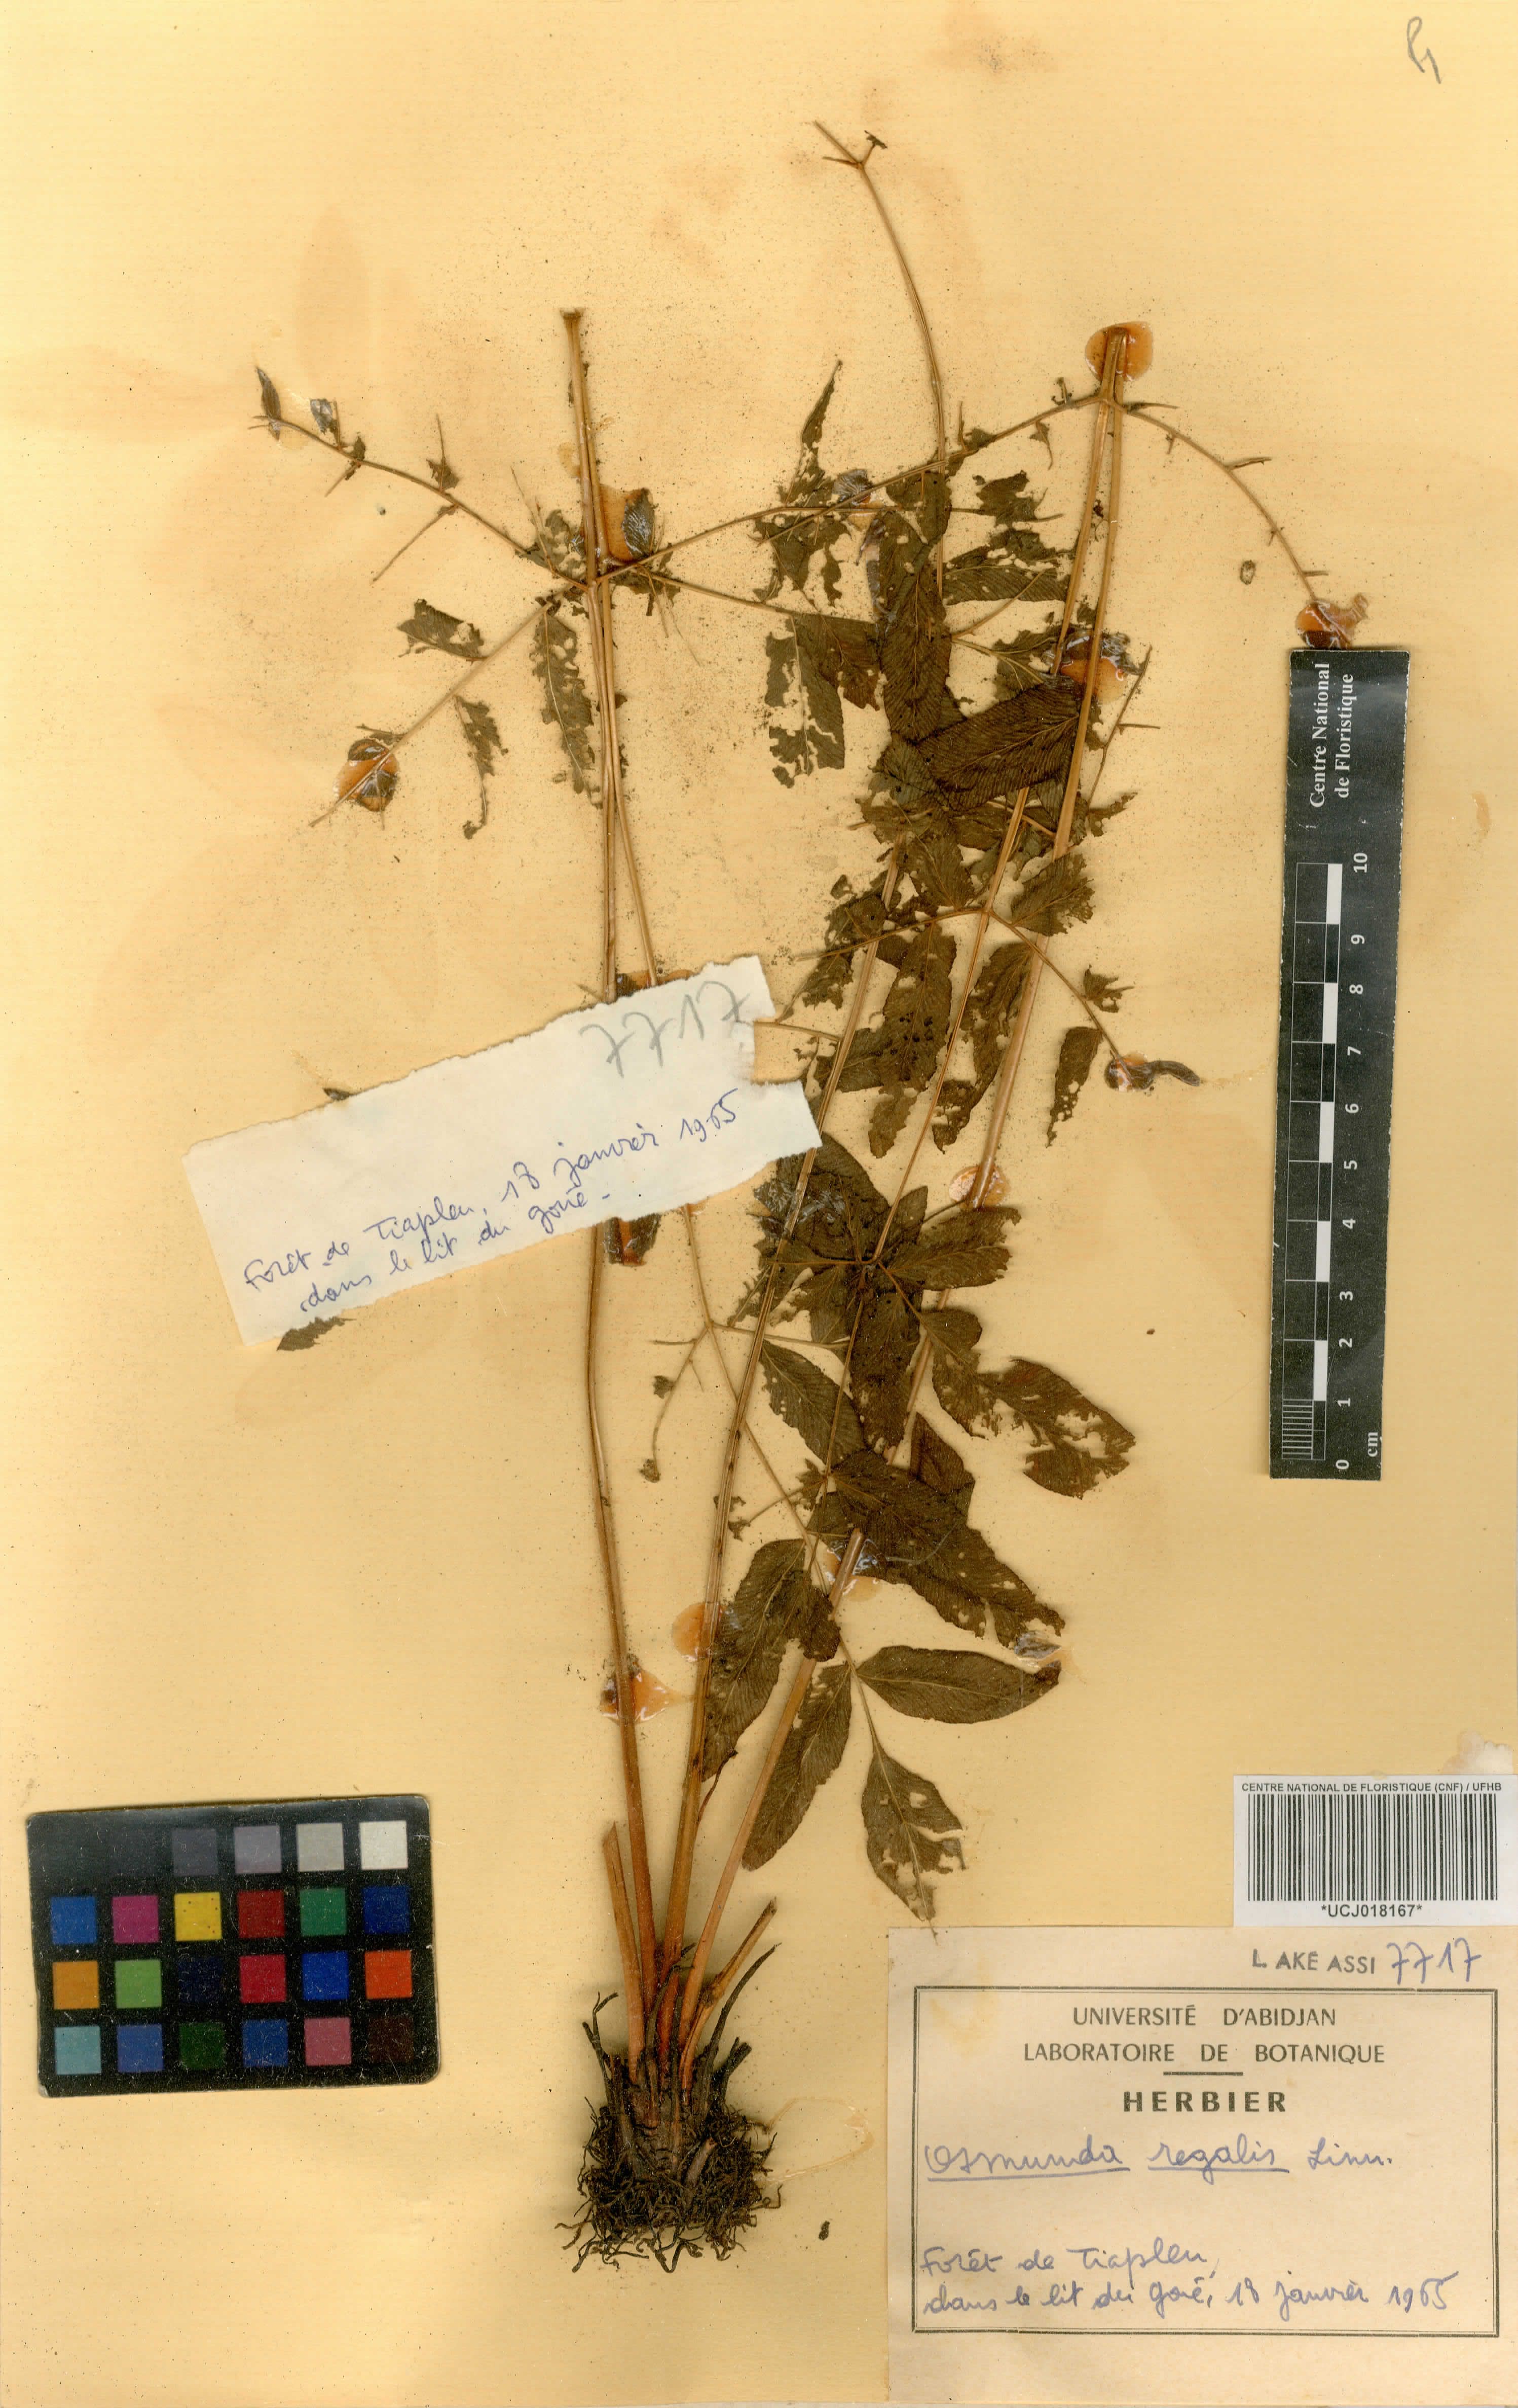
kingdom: Plantae
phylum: Tracheophyta
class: Polypodiopsida
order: Osmundales
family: Osmundaceae
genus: Osmunda
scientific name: Osmunda regalis
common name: Royal fern
